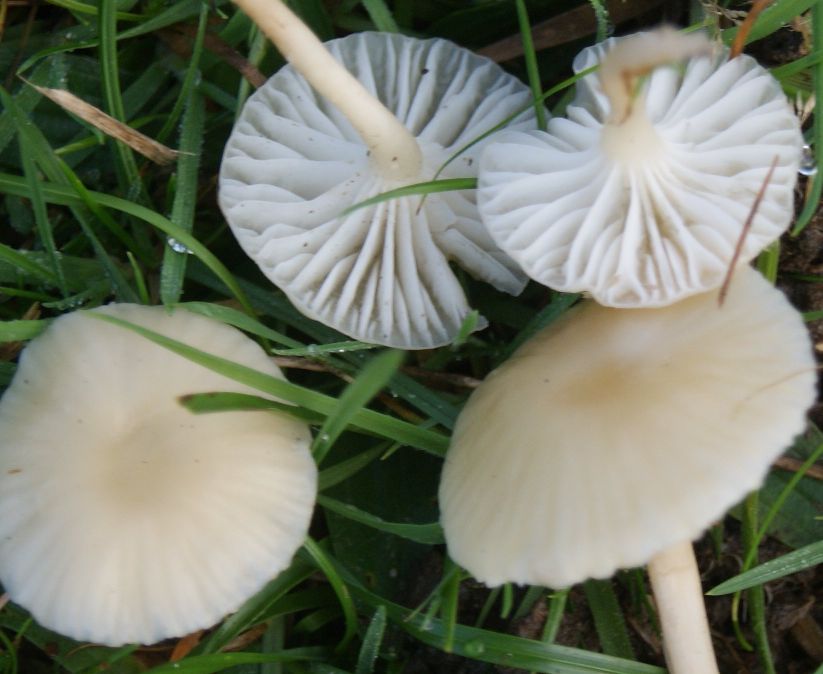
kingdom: Fungi
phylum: Basidiomycota
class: Agaricomycetes
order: Agaricales
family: Hygrophoraceae
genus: Cuphophyllus
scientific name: Cuphophyllus russocoriaceus
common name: ruslæder-vokshat
